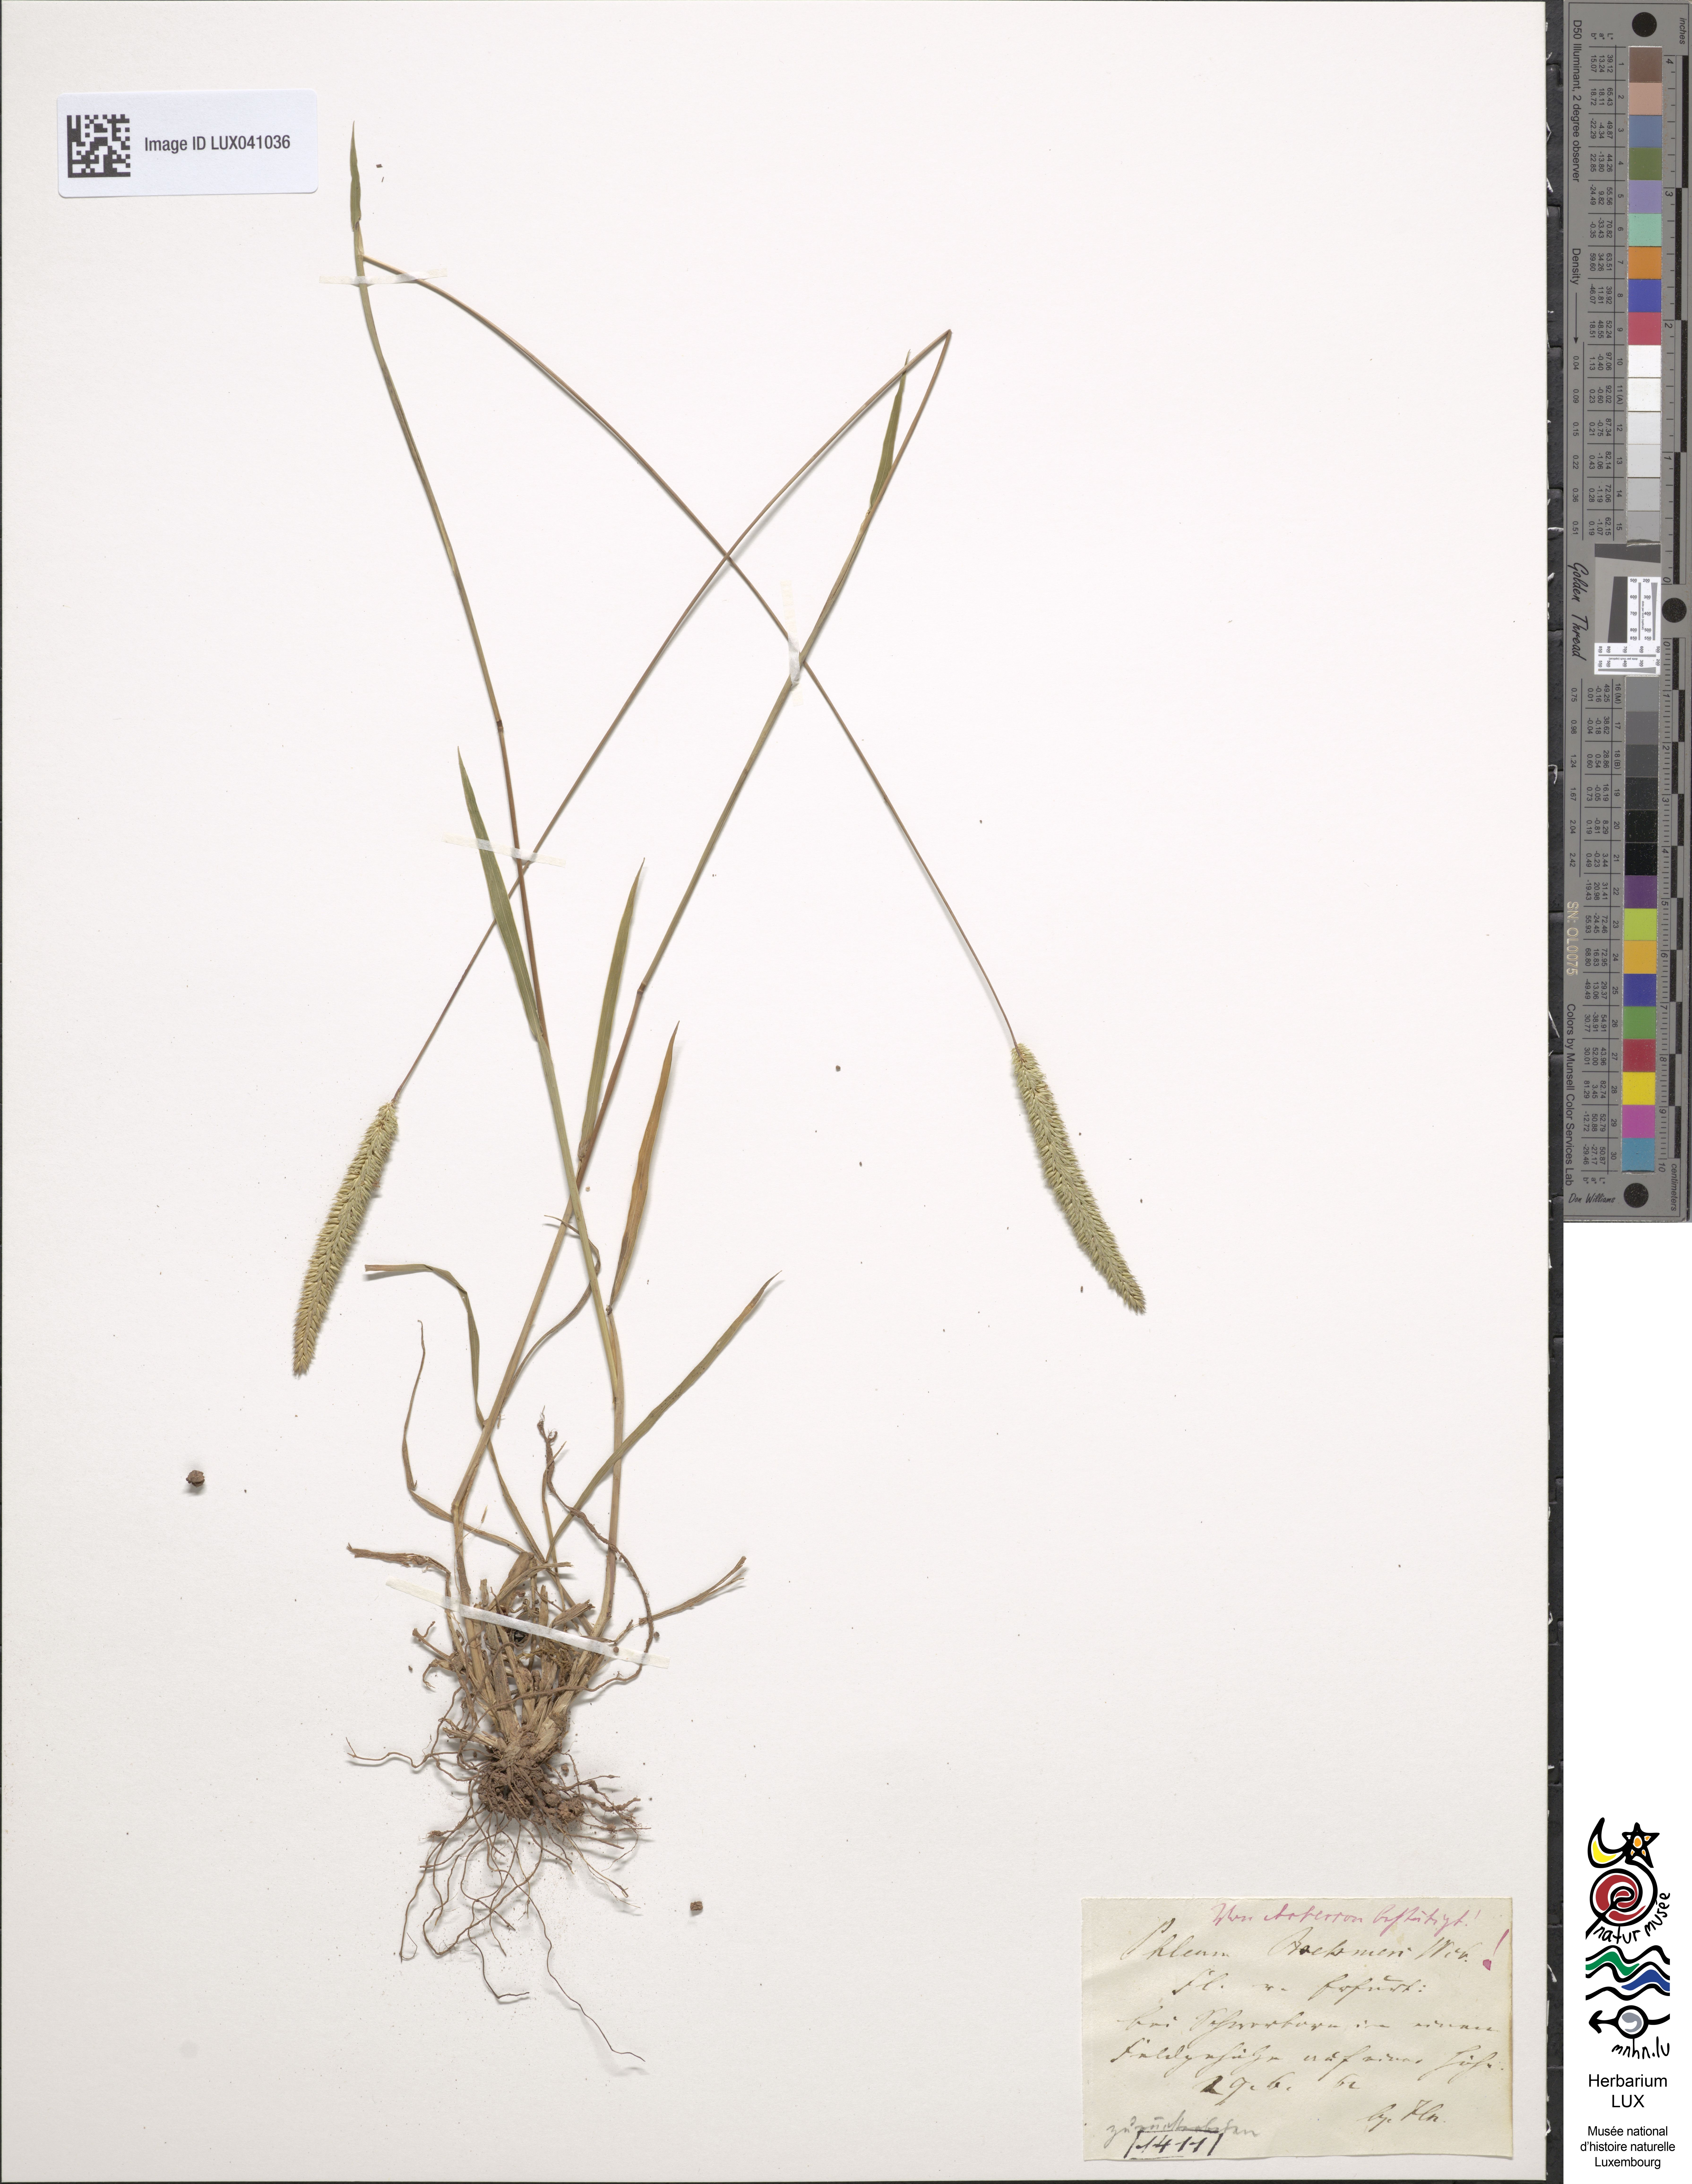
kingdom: Plantae
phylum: Tracheophyta
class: Liliopsida
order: Poales
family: Poaceae
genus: Phleum
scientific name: Phleum phleoides
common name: Purple-stem cat's-tail
